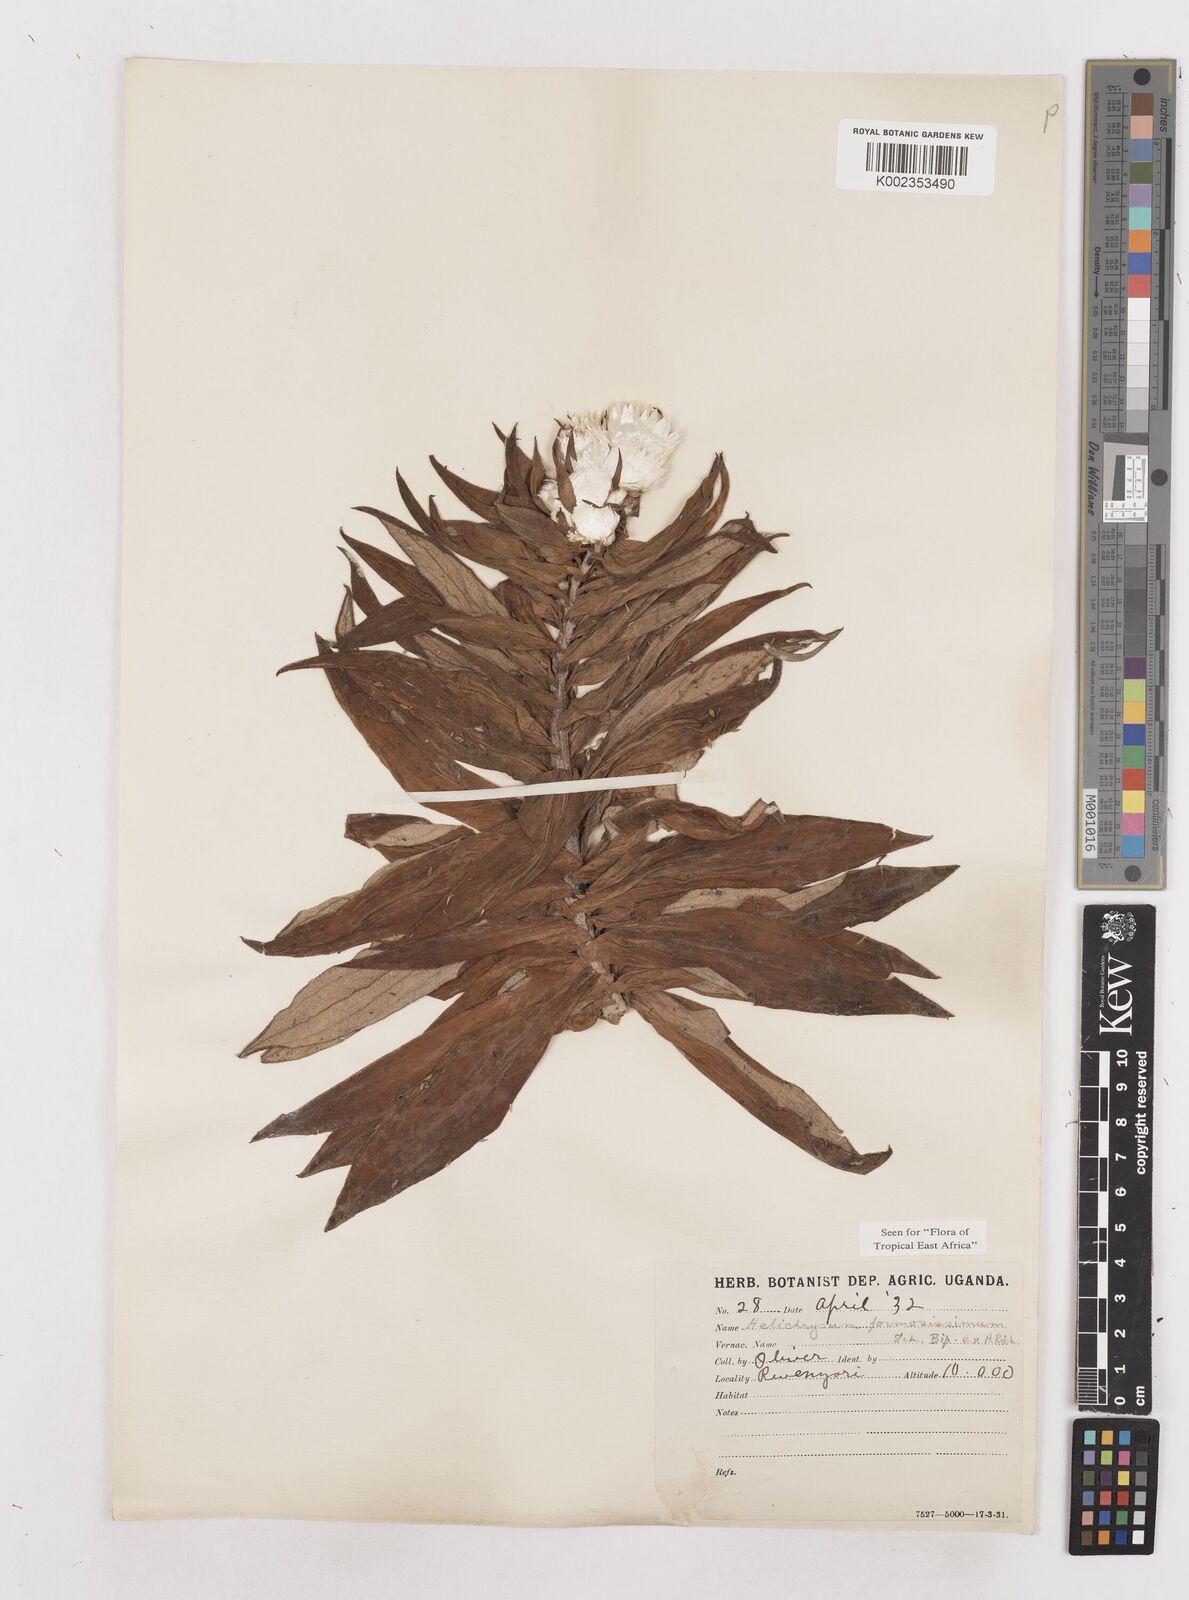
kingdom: Plantae
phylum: Tracheophyta
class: Magnoliopsida
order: Asterales
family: Asteraceae
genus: Helichrysum
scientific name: Helichrysum formosissimum
